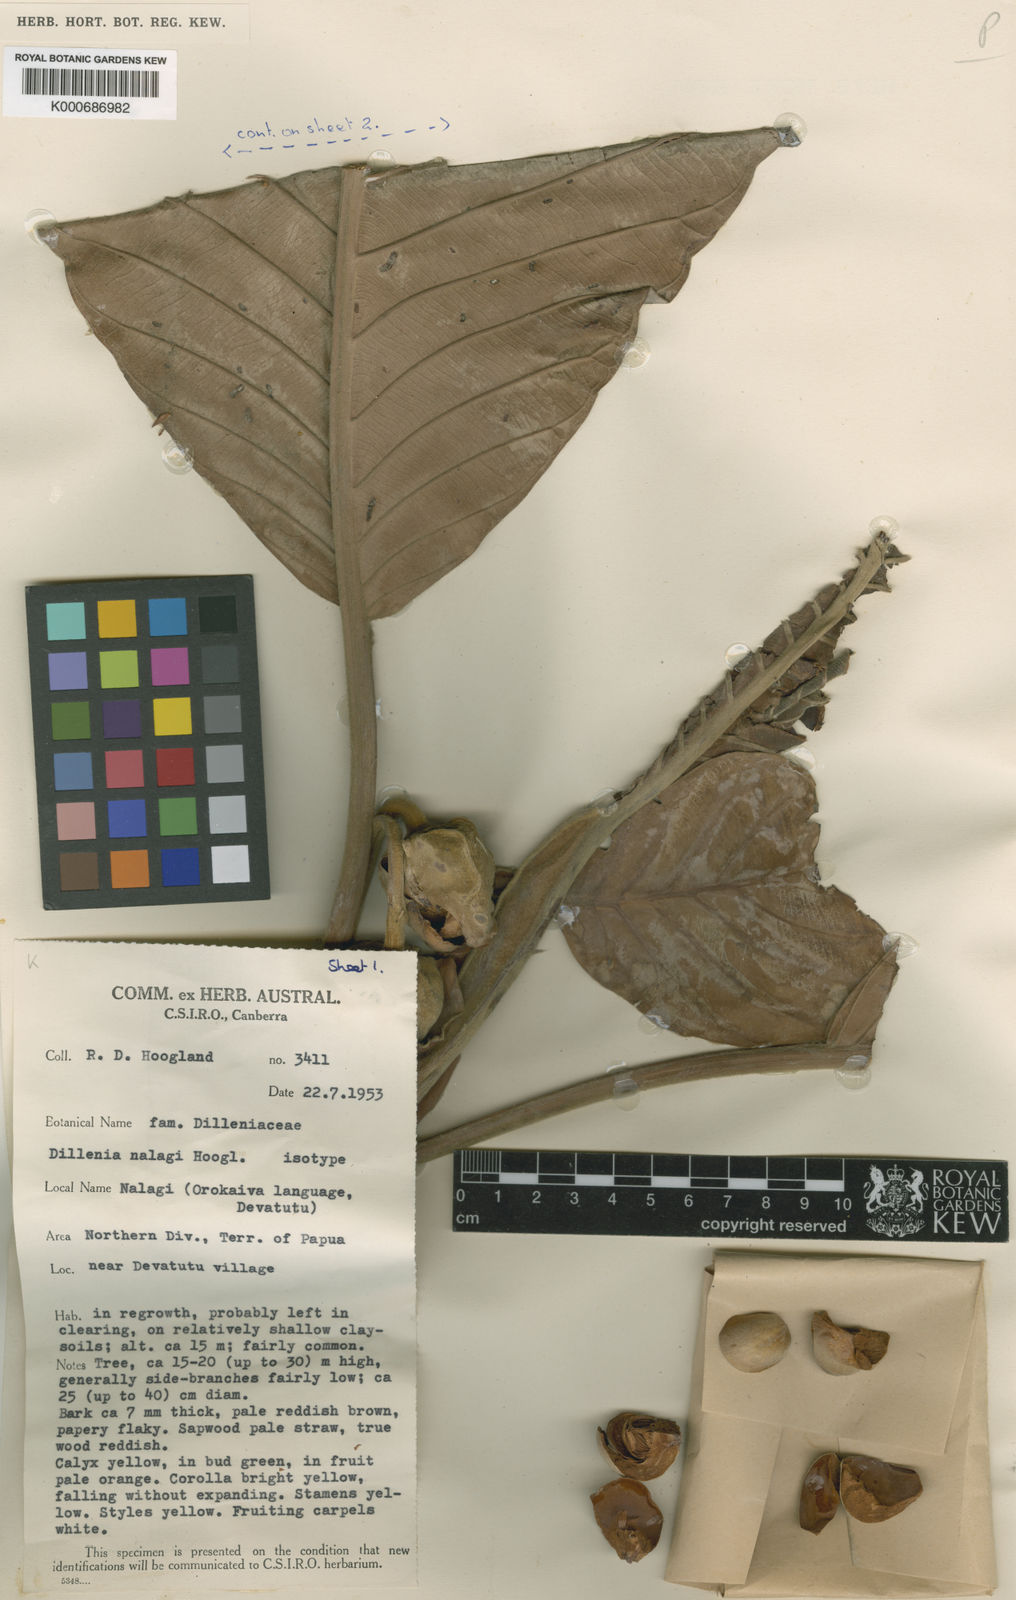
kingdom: Plantae
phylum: Tracheophyta
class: Magnoliopsida
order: Dilleniales
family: Dilleniaceae
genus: Dillenia
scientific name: Dillenia nalagi
